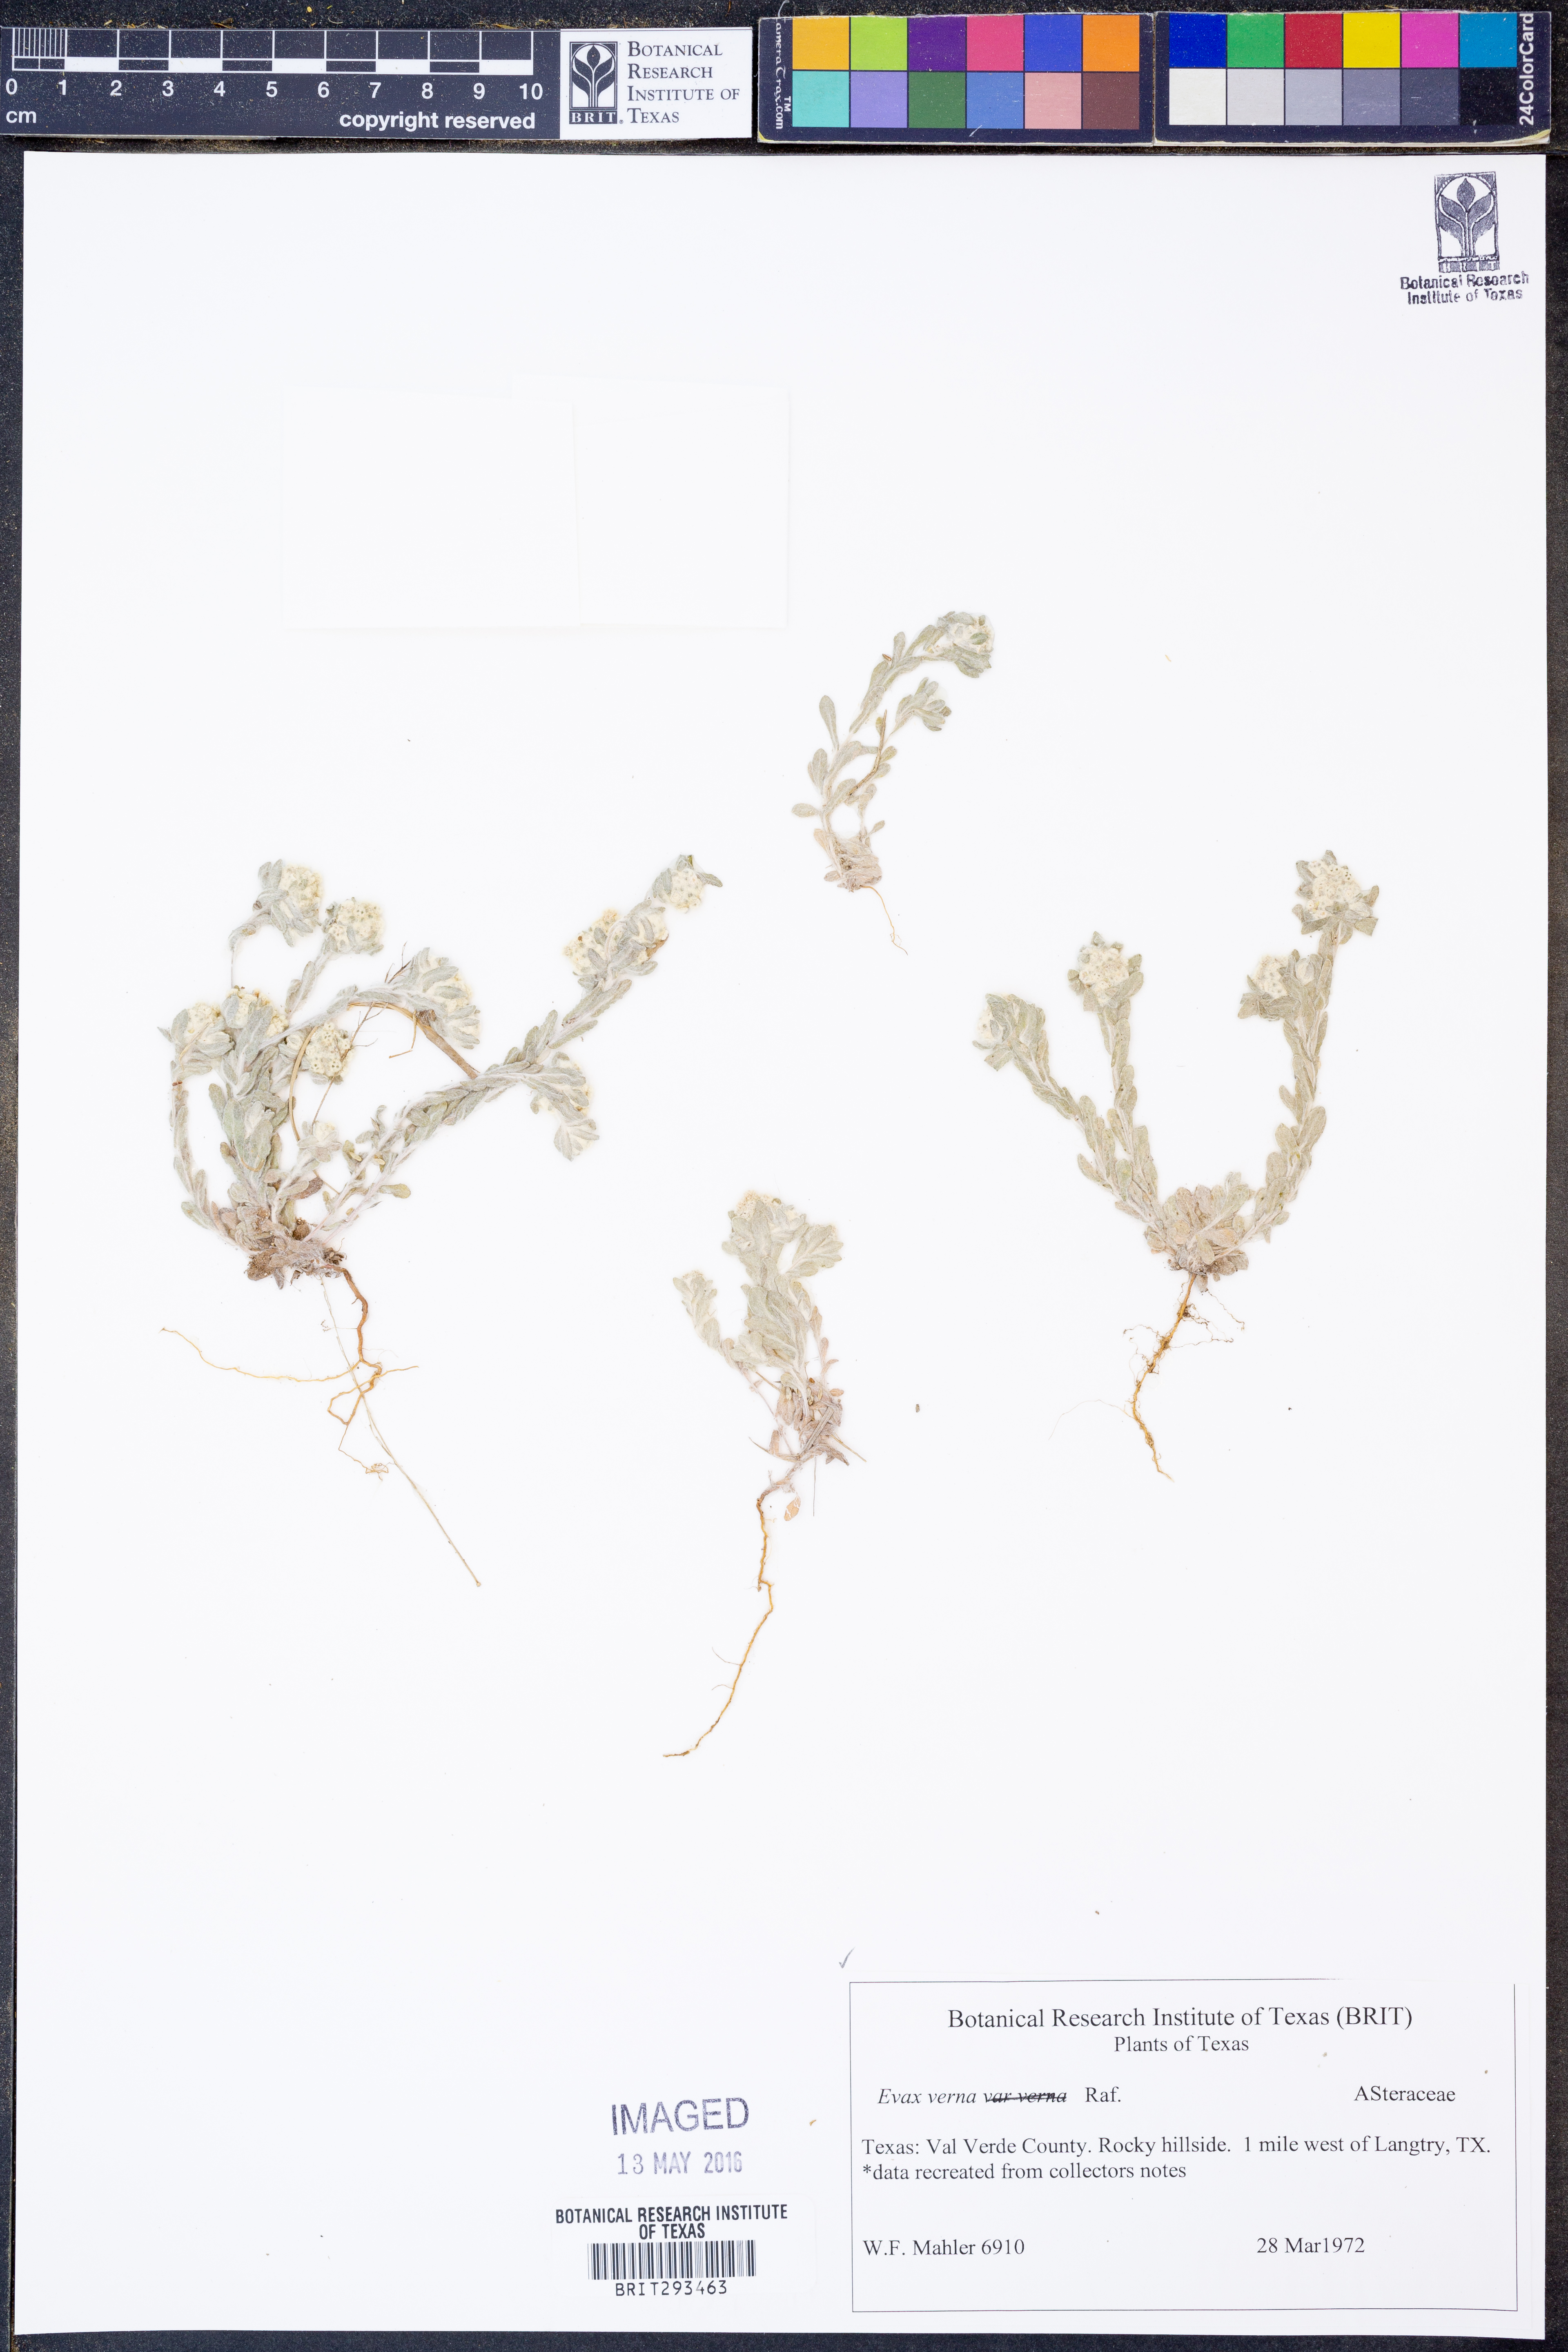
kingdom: Plantae
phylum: Tracheophyta
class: Magnoliopsida
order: Asterales
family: Asteraceae
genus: Diaperia
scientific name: Diaperia verna
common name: Many-stem rabbit-tobacco
